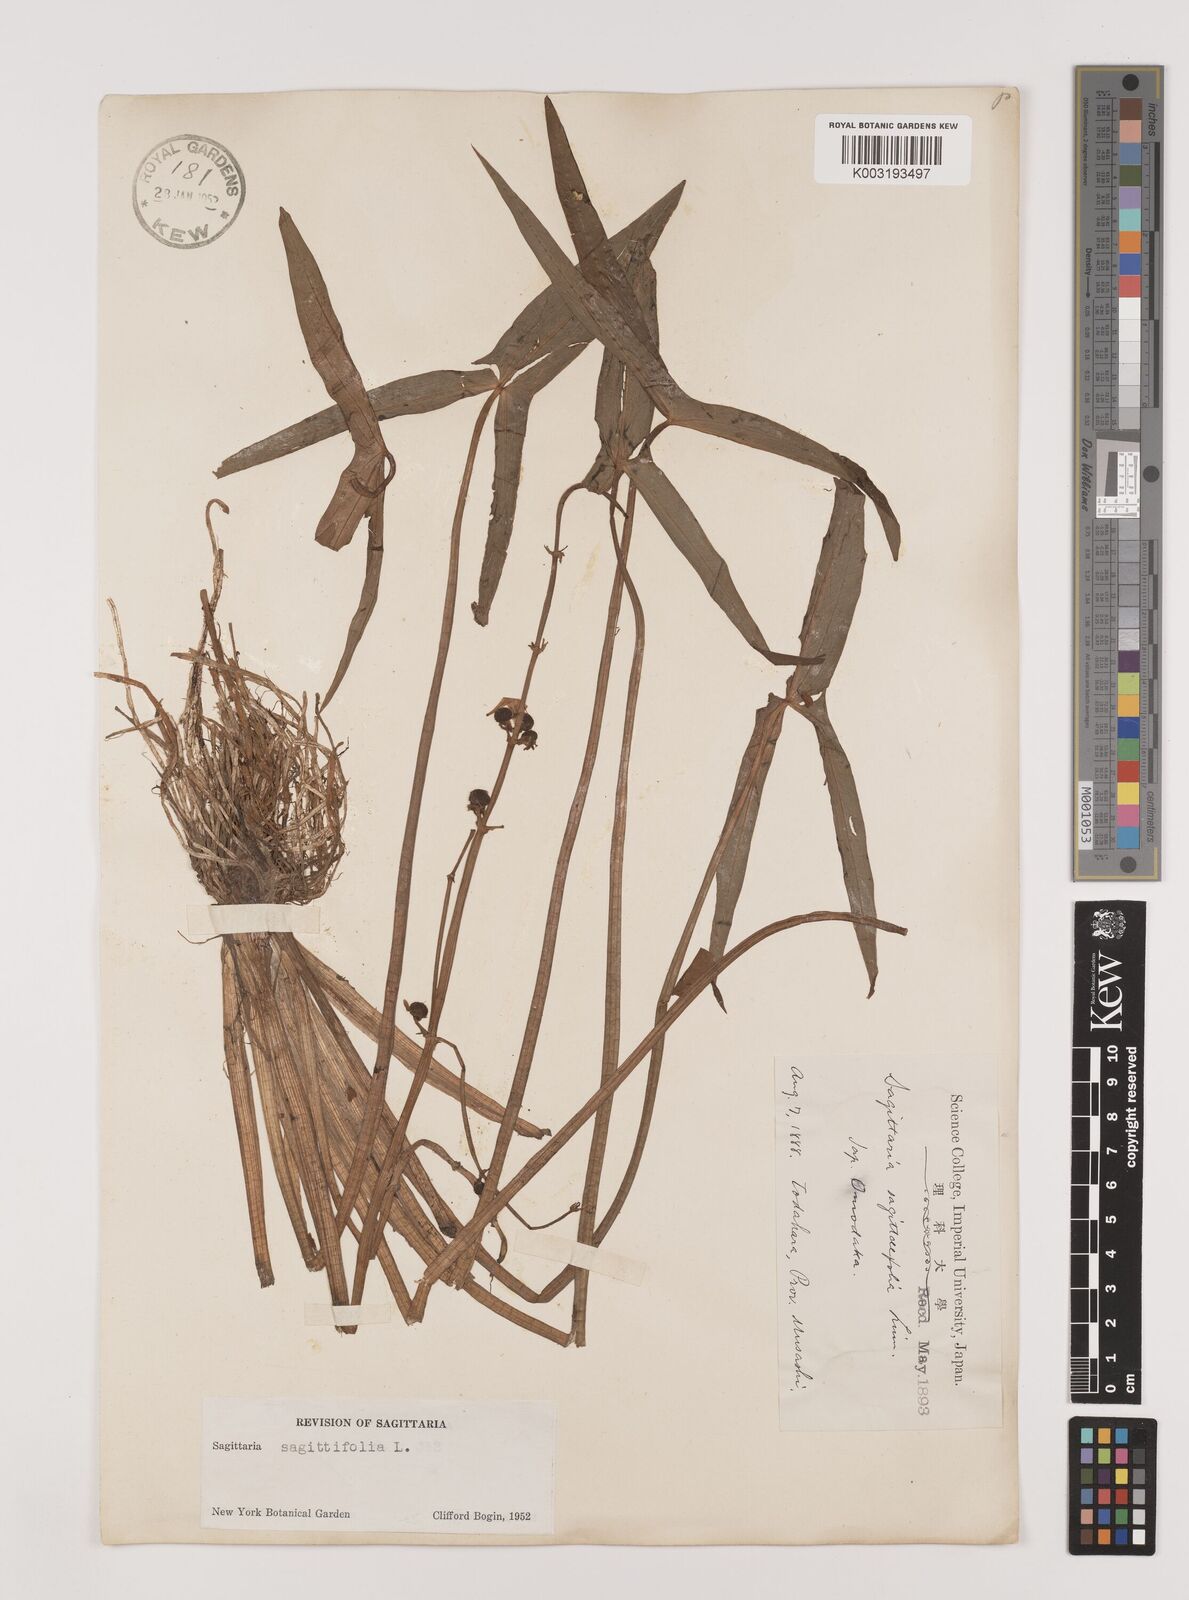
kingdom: Plantae
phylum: Tracheophyta
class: Liliopsida
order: Alismatales
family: Alismataceae
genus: Sagittaria
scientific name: Sagittaria sagittifolia
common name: Arrowhead
